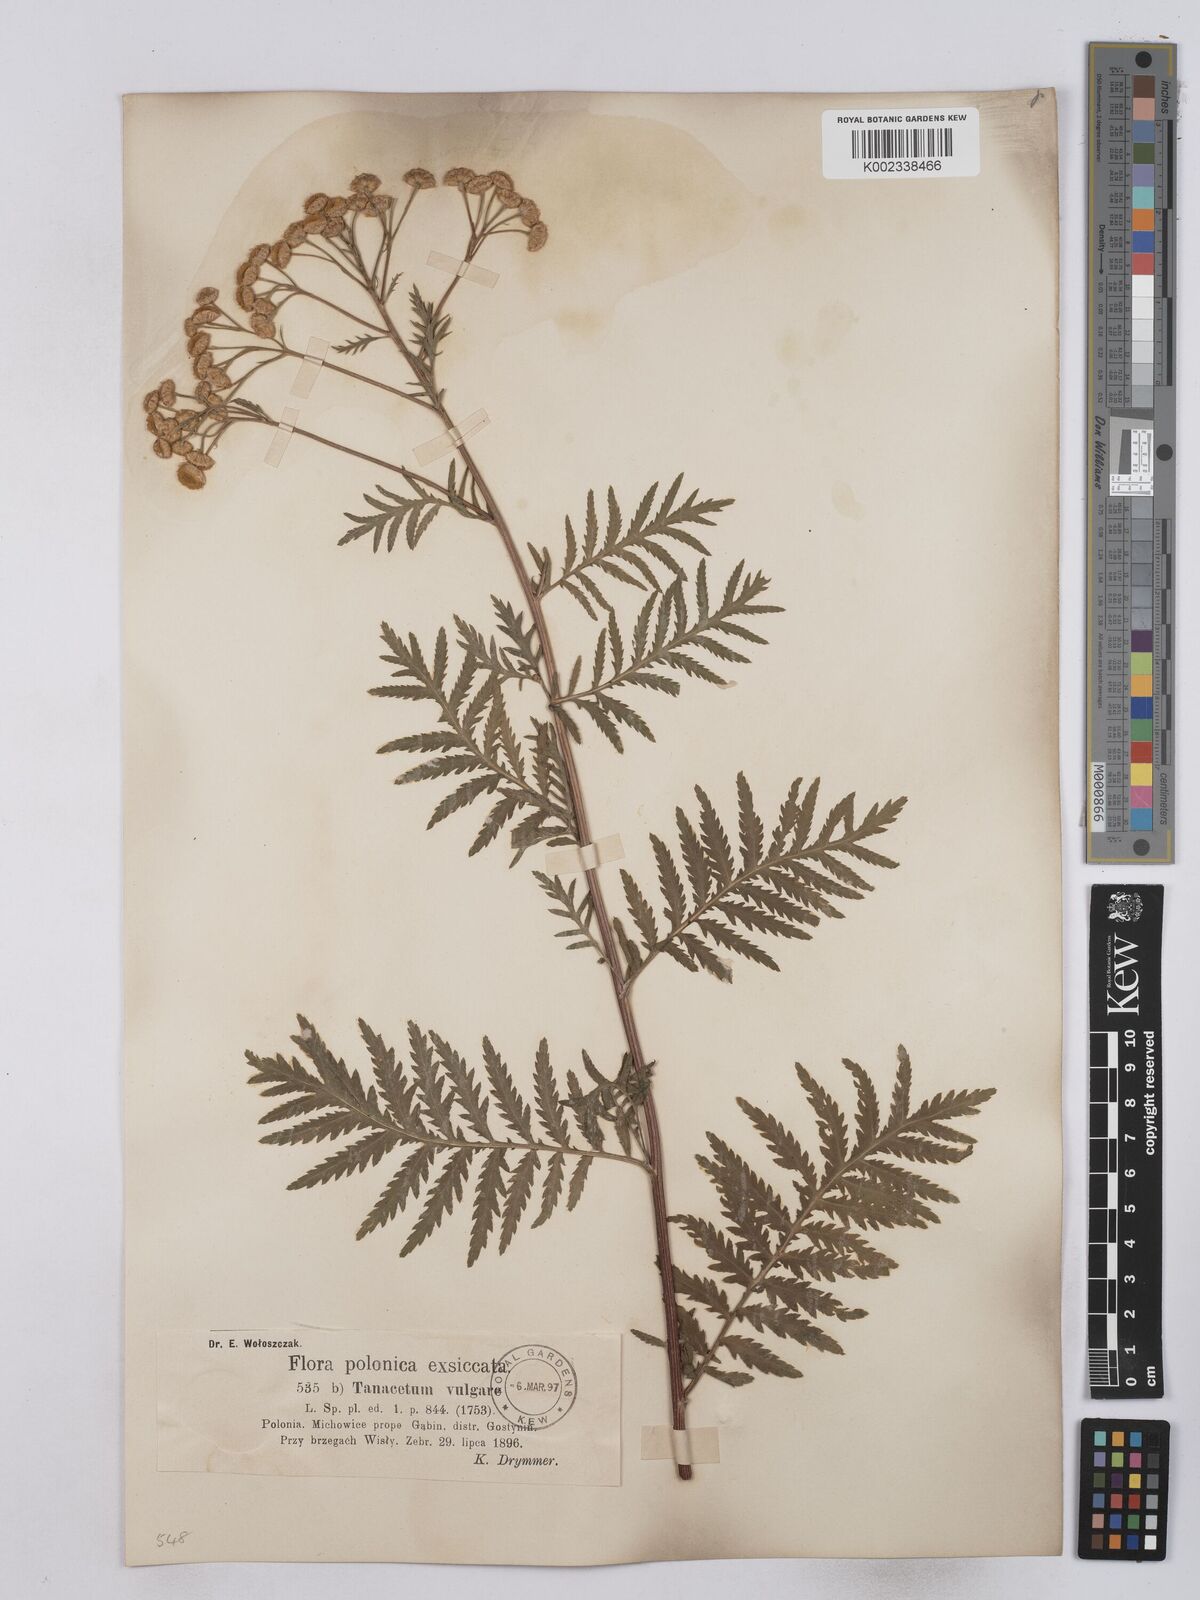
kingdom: Plantae
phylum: Tracheophyta
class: Magnoliopsida
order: Asterales
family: Asteraceae
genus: Tanacetum
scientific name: Tanacetum vulgare
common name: Common tansy
